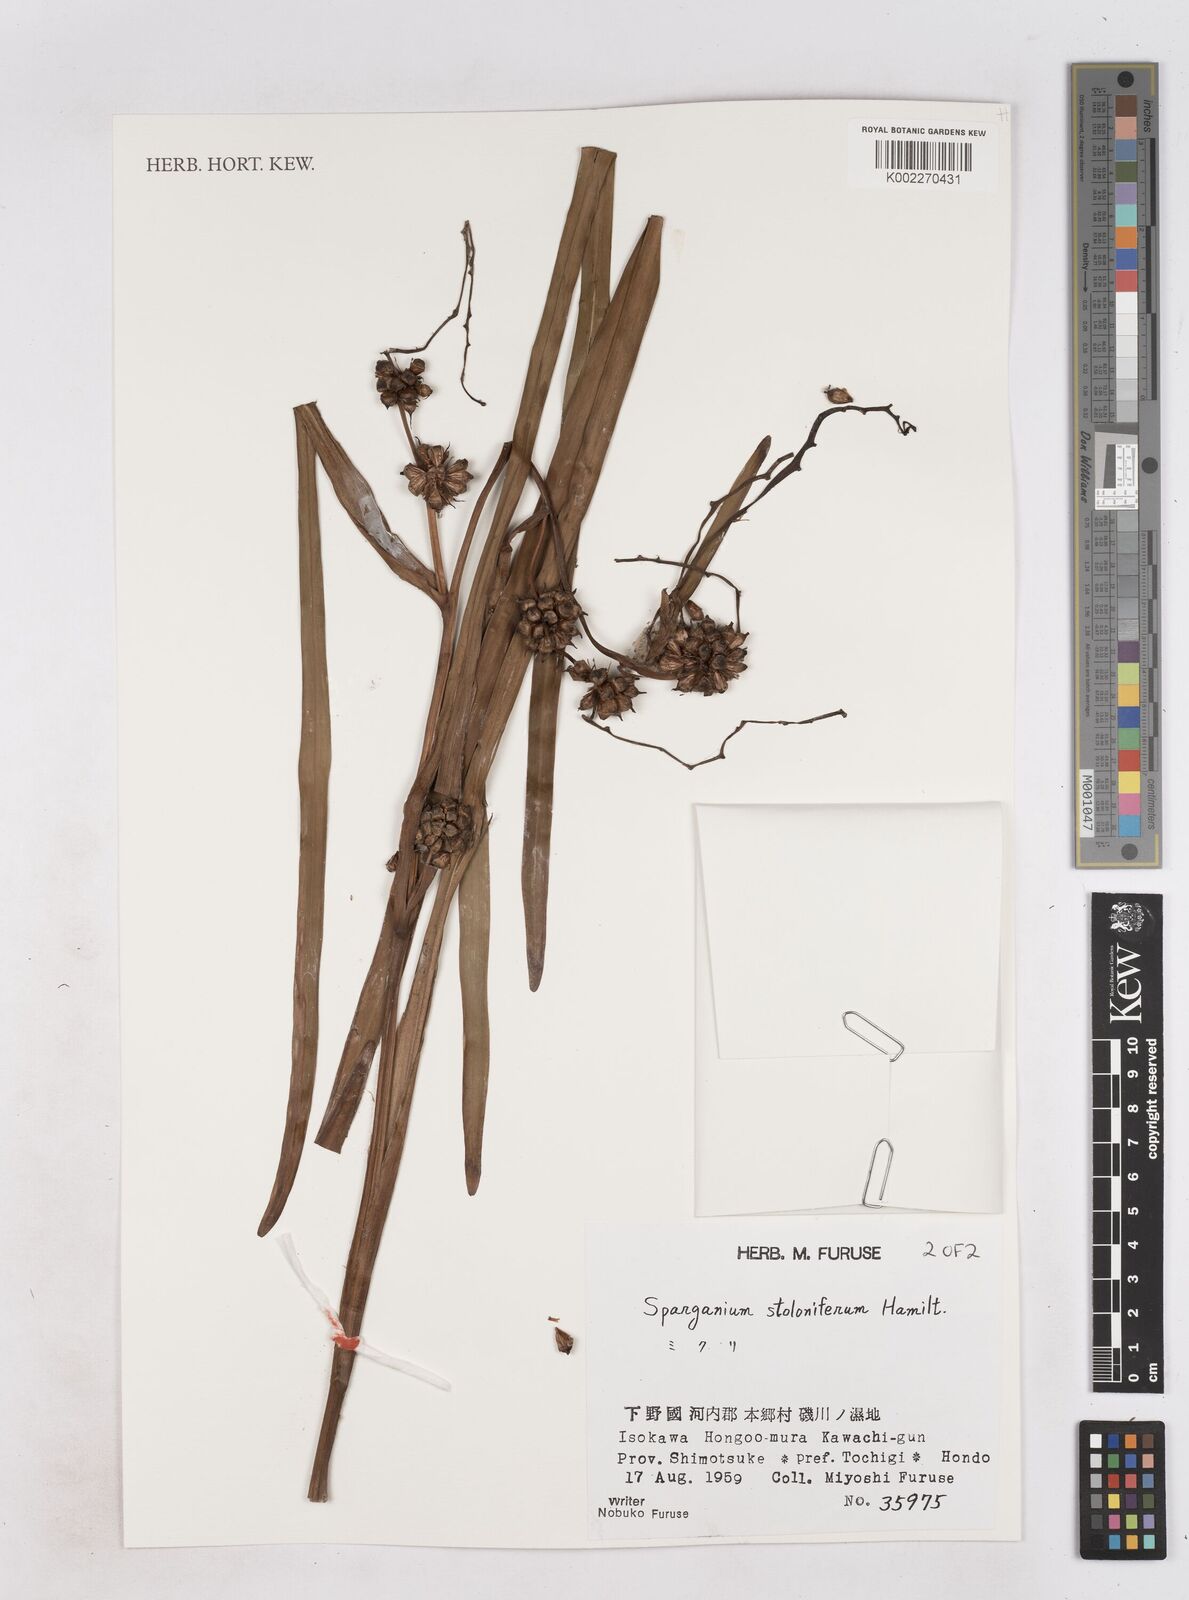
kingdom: Plantae
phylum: Tracheophyta
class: Liliopsida
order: Poales
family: Typhaceae
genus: Sparganium
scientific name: Sparganium stoloniferum
